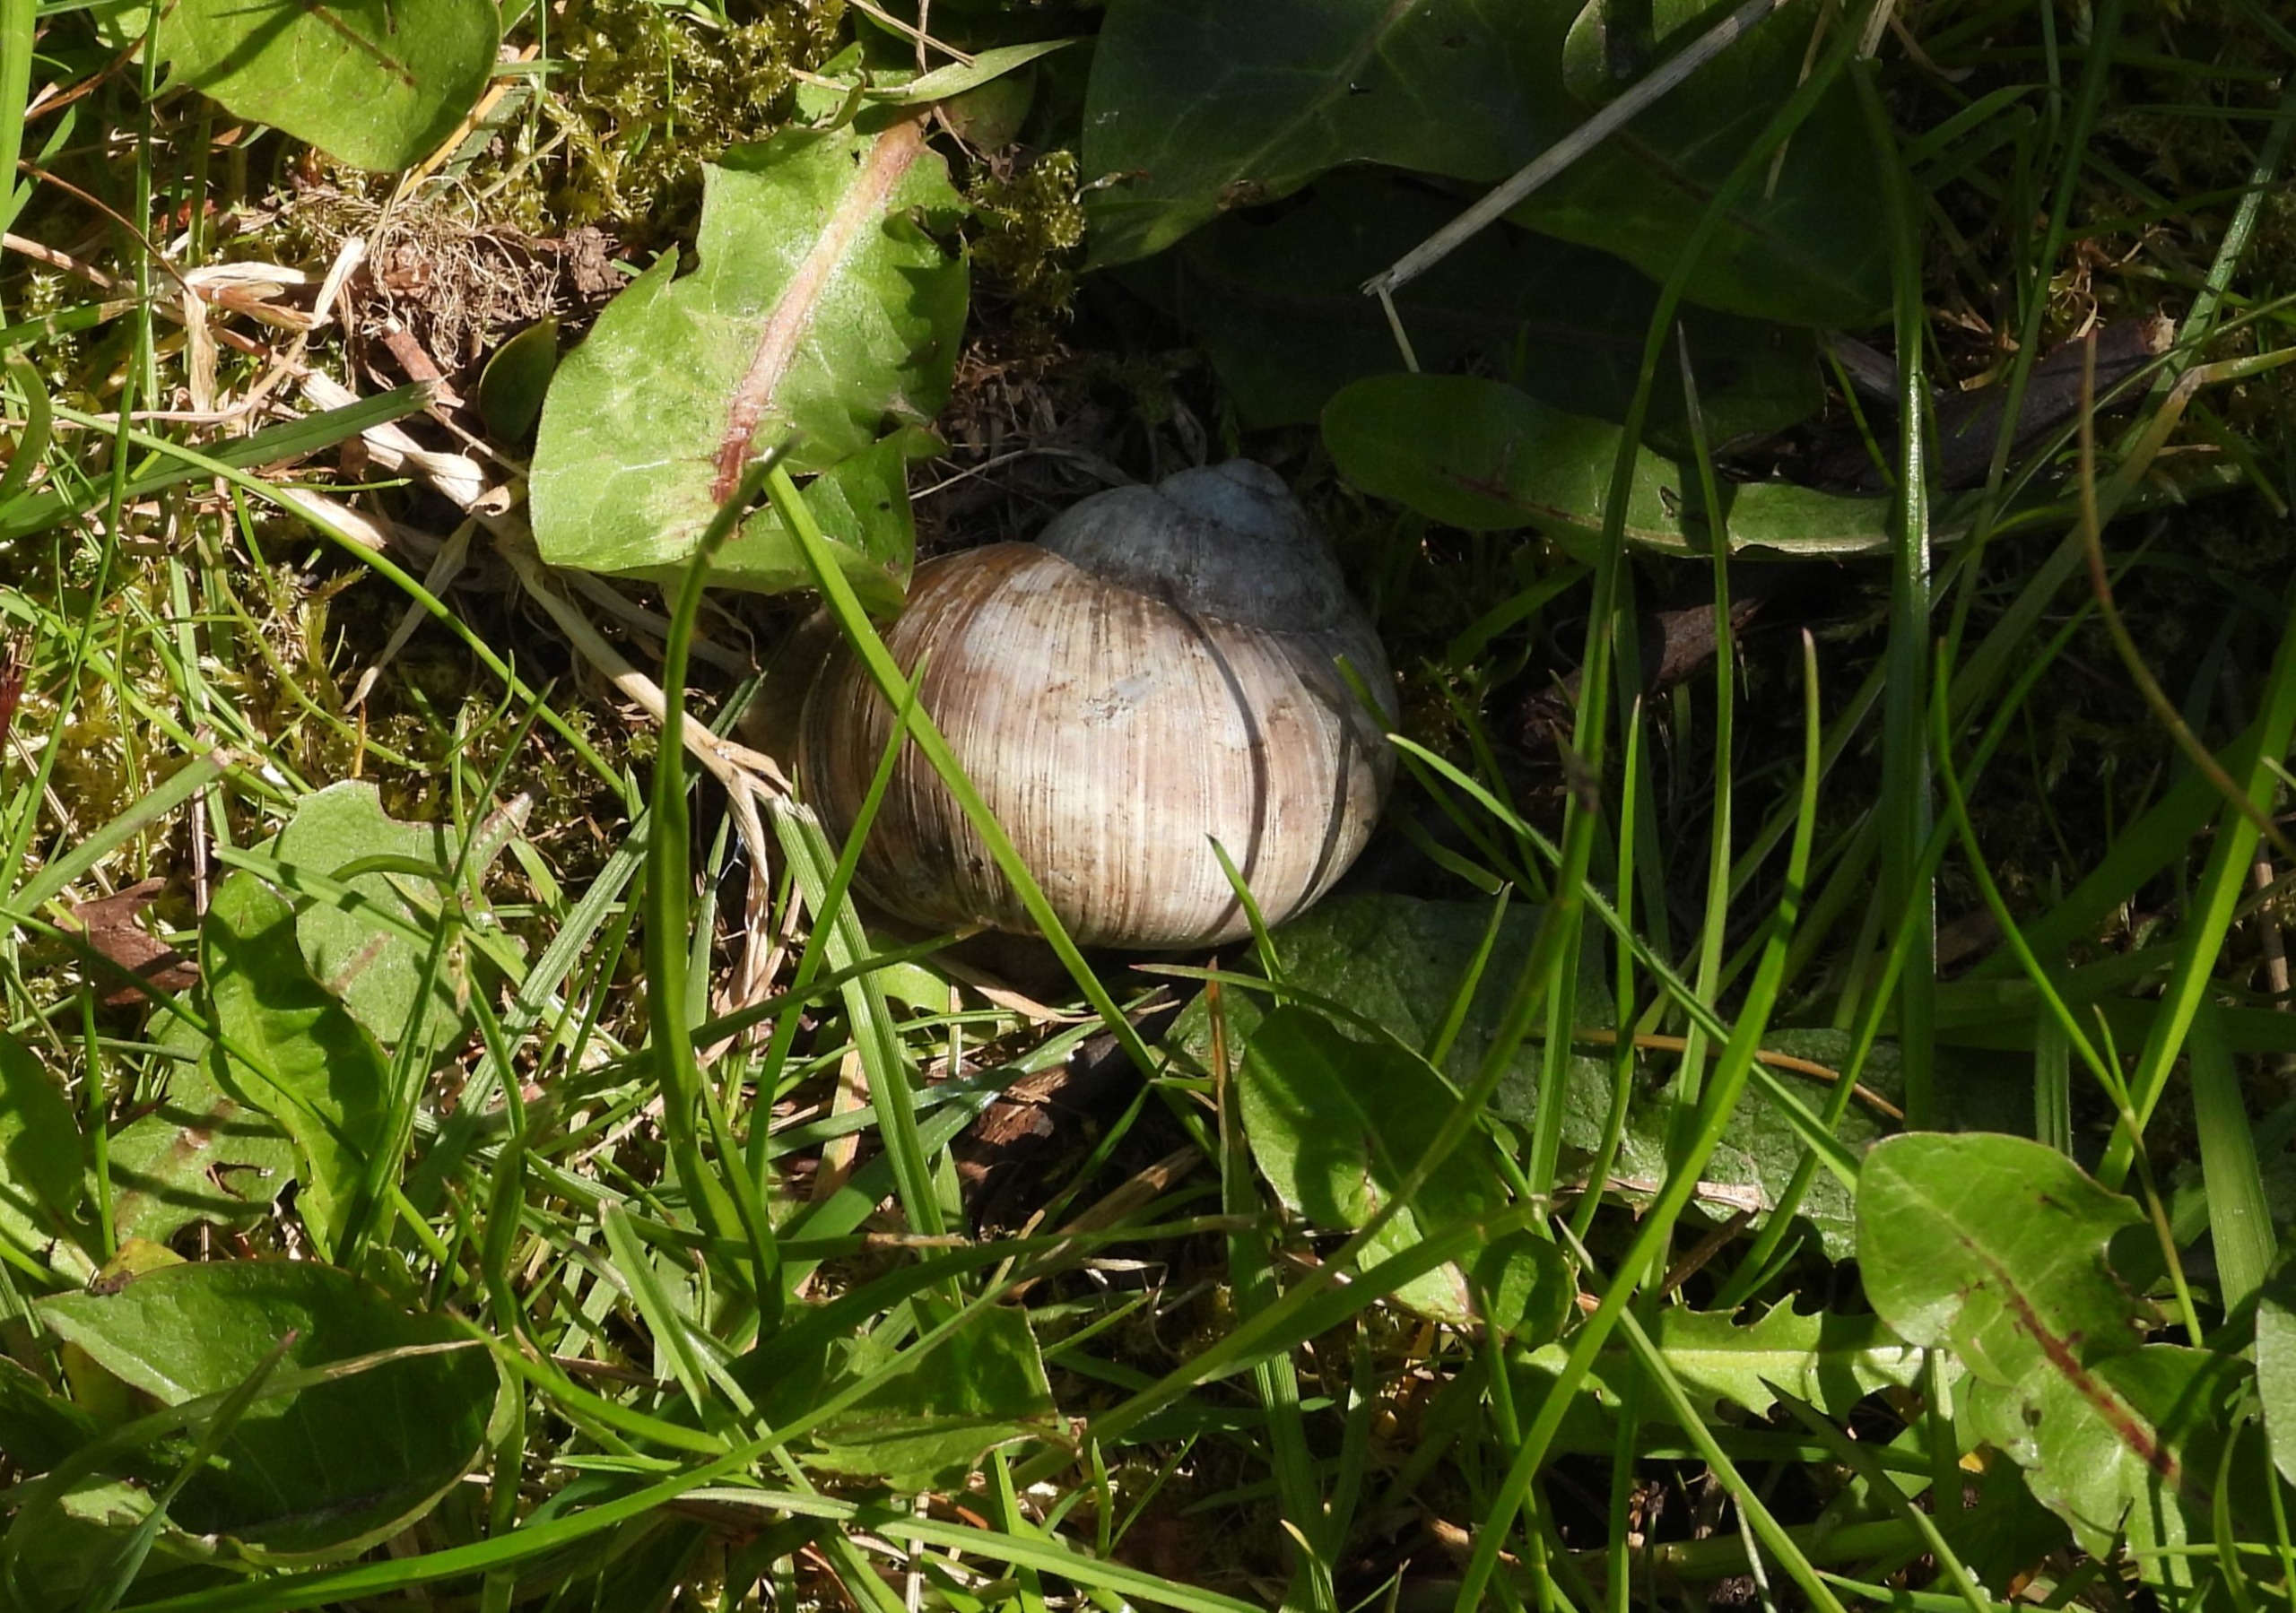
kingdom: Animalia
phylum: Mollusca
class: Gastropoda
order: Stylommatophora
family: Helicidae
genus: Helix
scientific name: Helix pomatia
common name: Vinbjergsnegl
